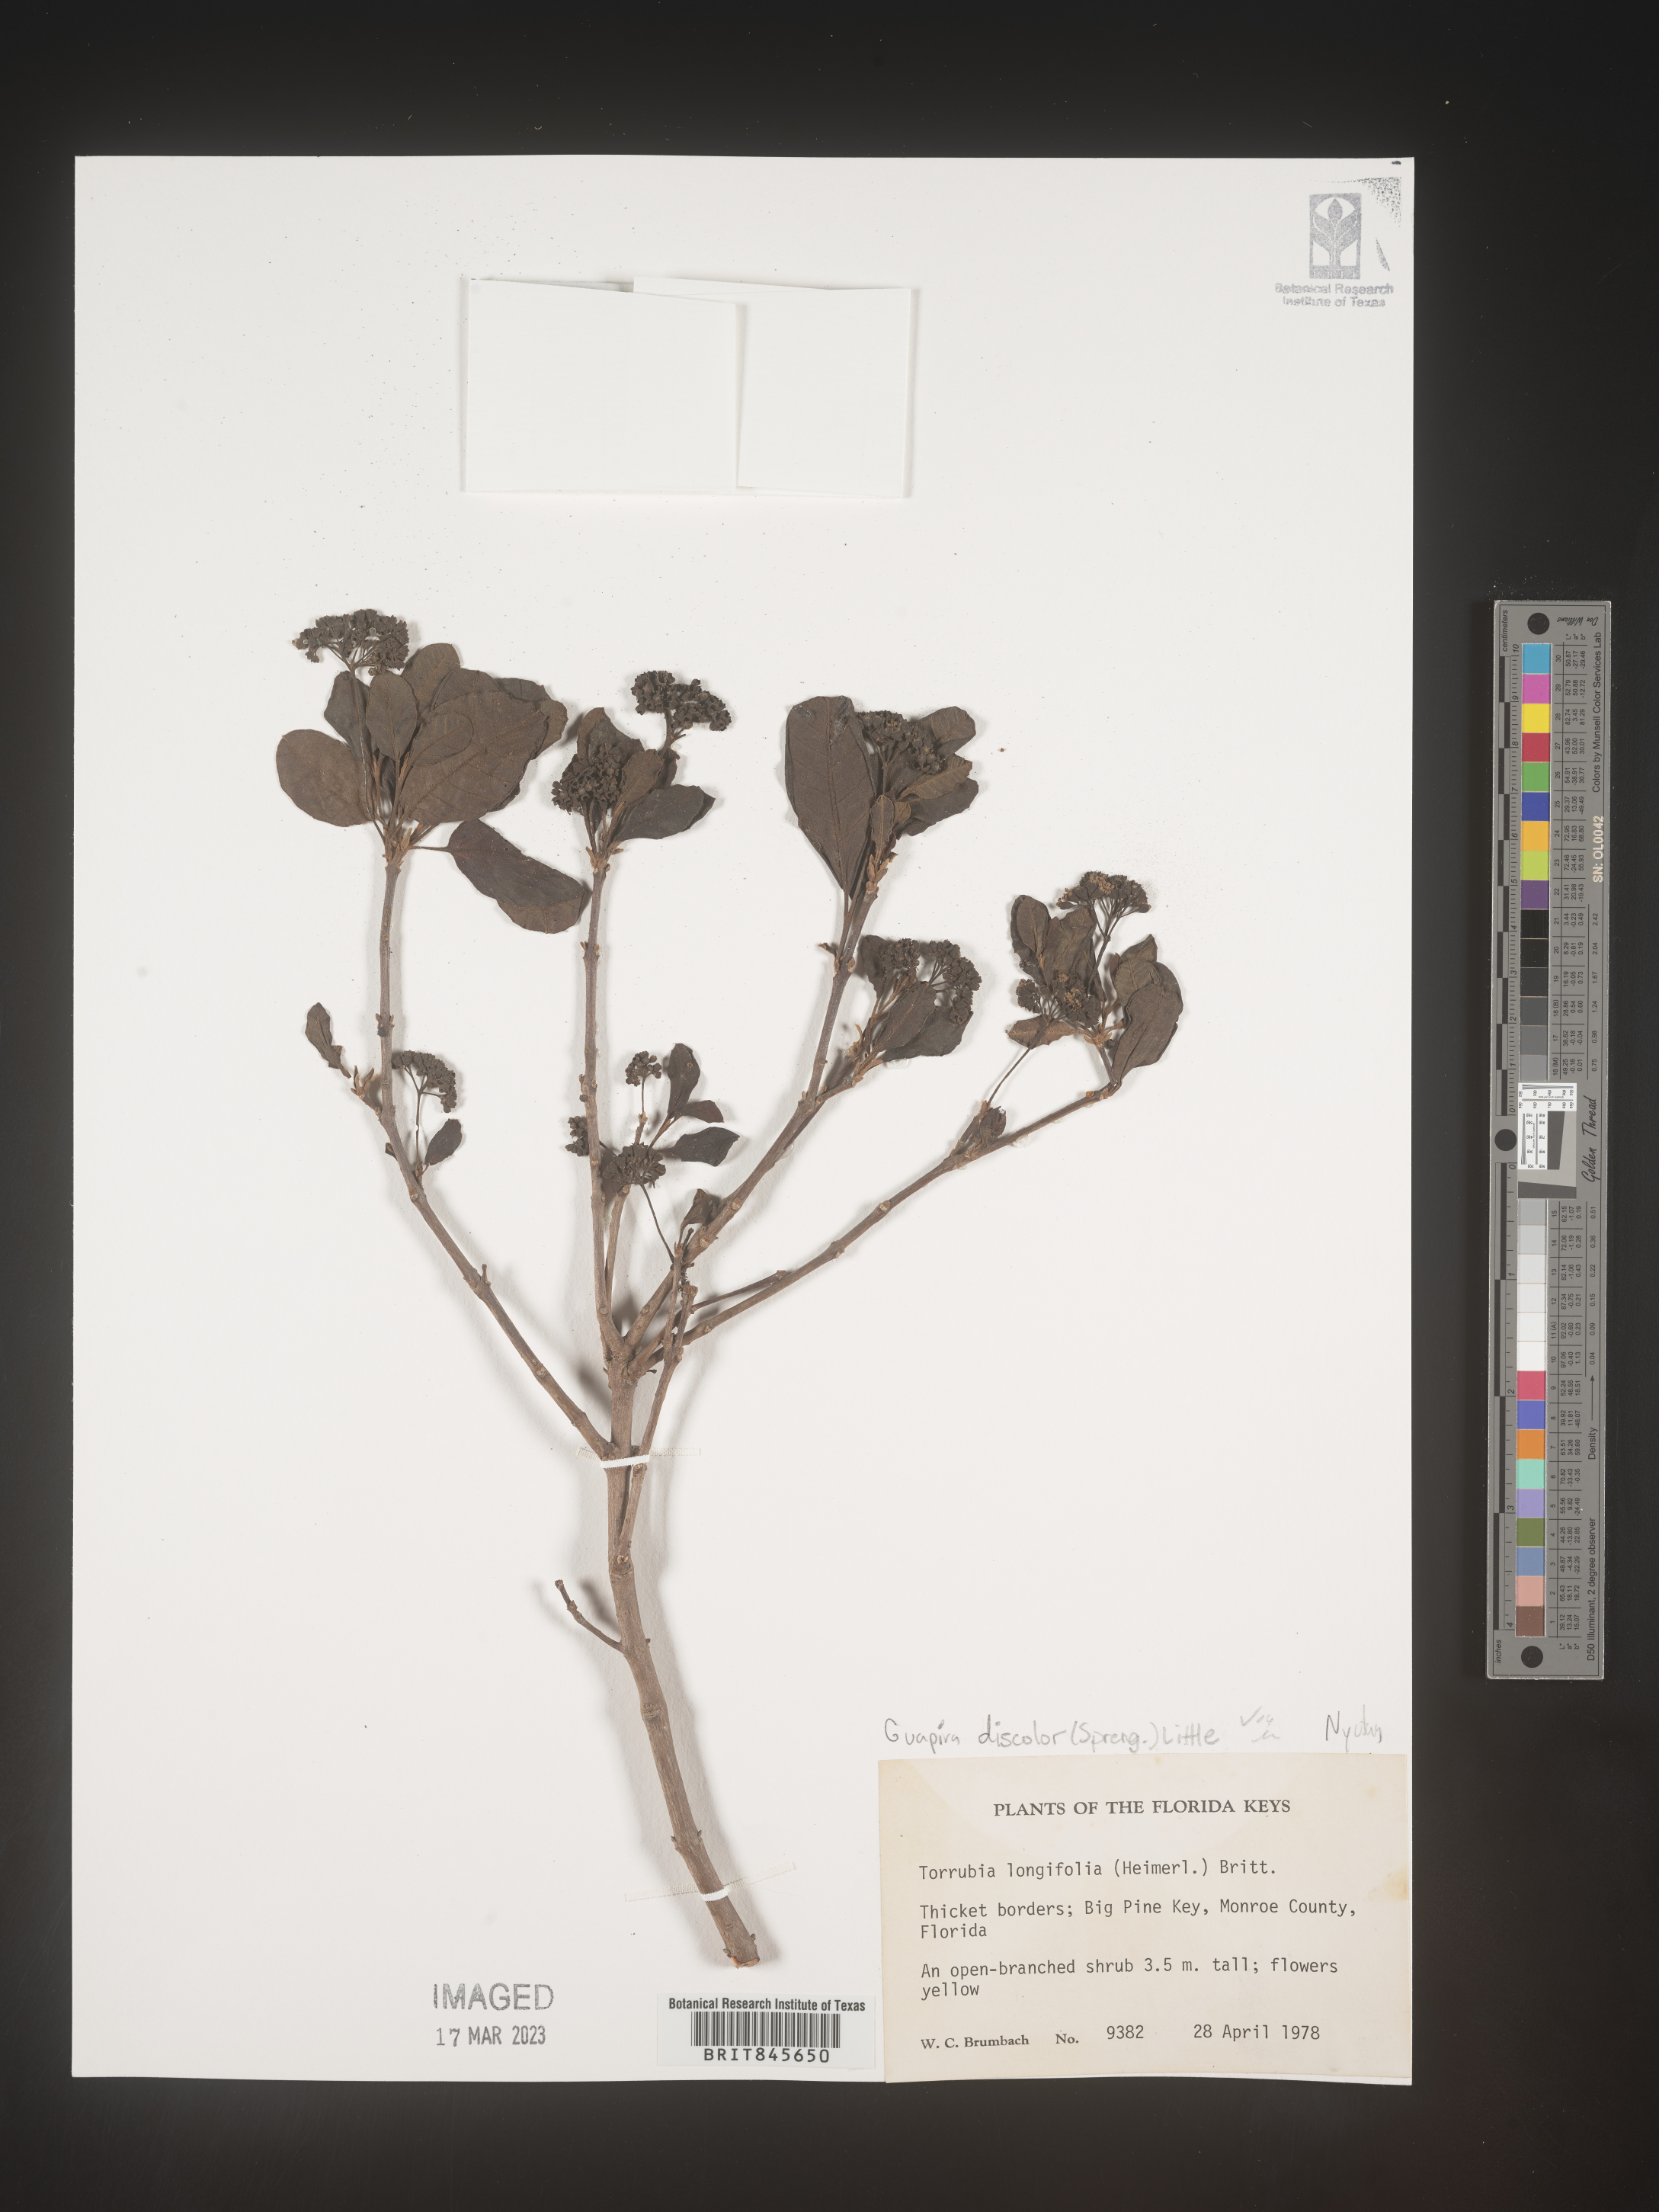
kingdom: Plantae
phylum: Tracheophyta
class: Magnoliopsida
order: Caryophyllales
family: Nyctaginaceae
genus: Guapira
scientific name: Guapira discolor
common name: Beeftree
